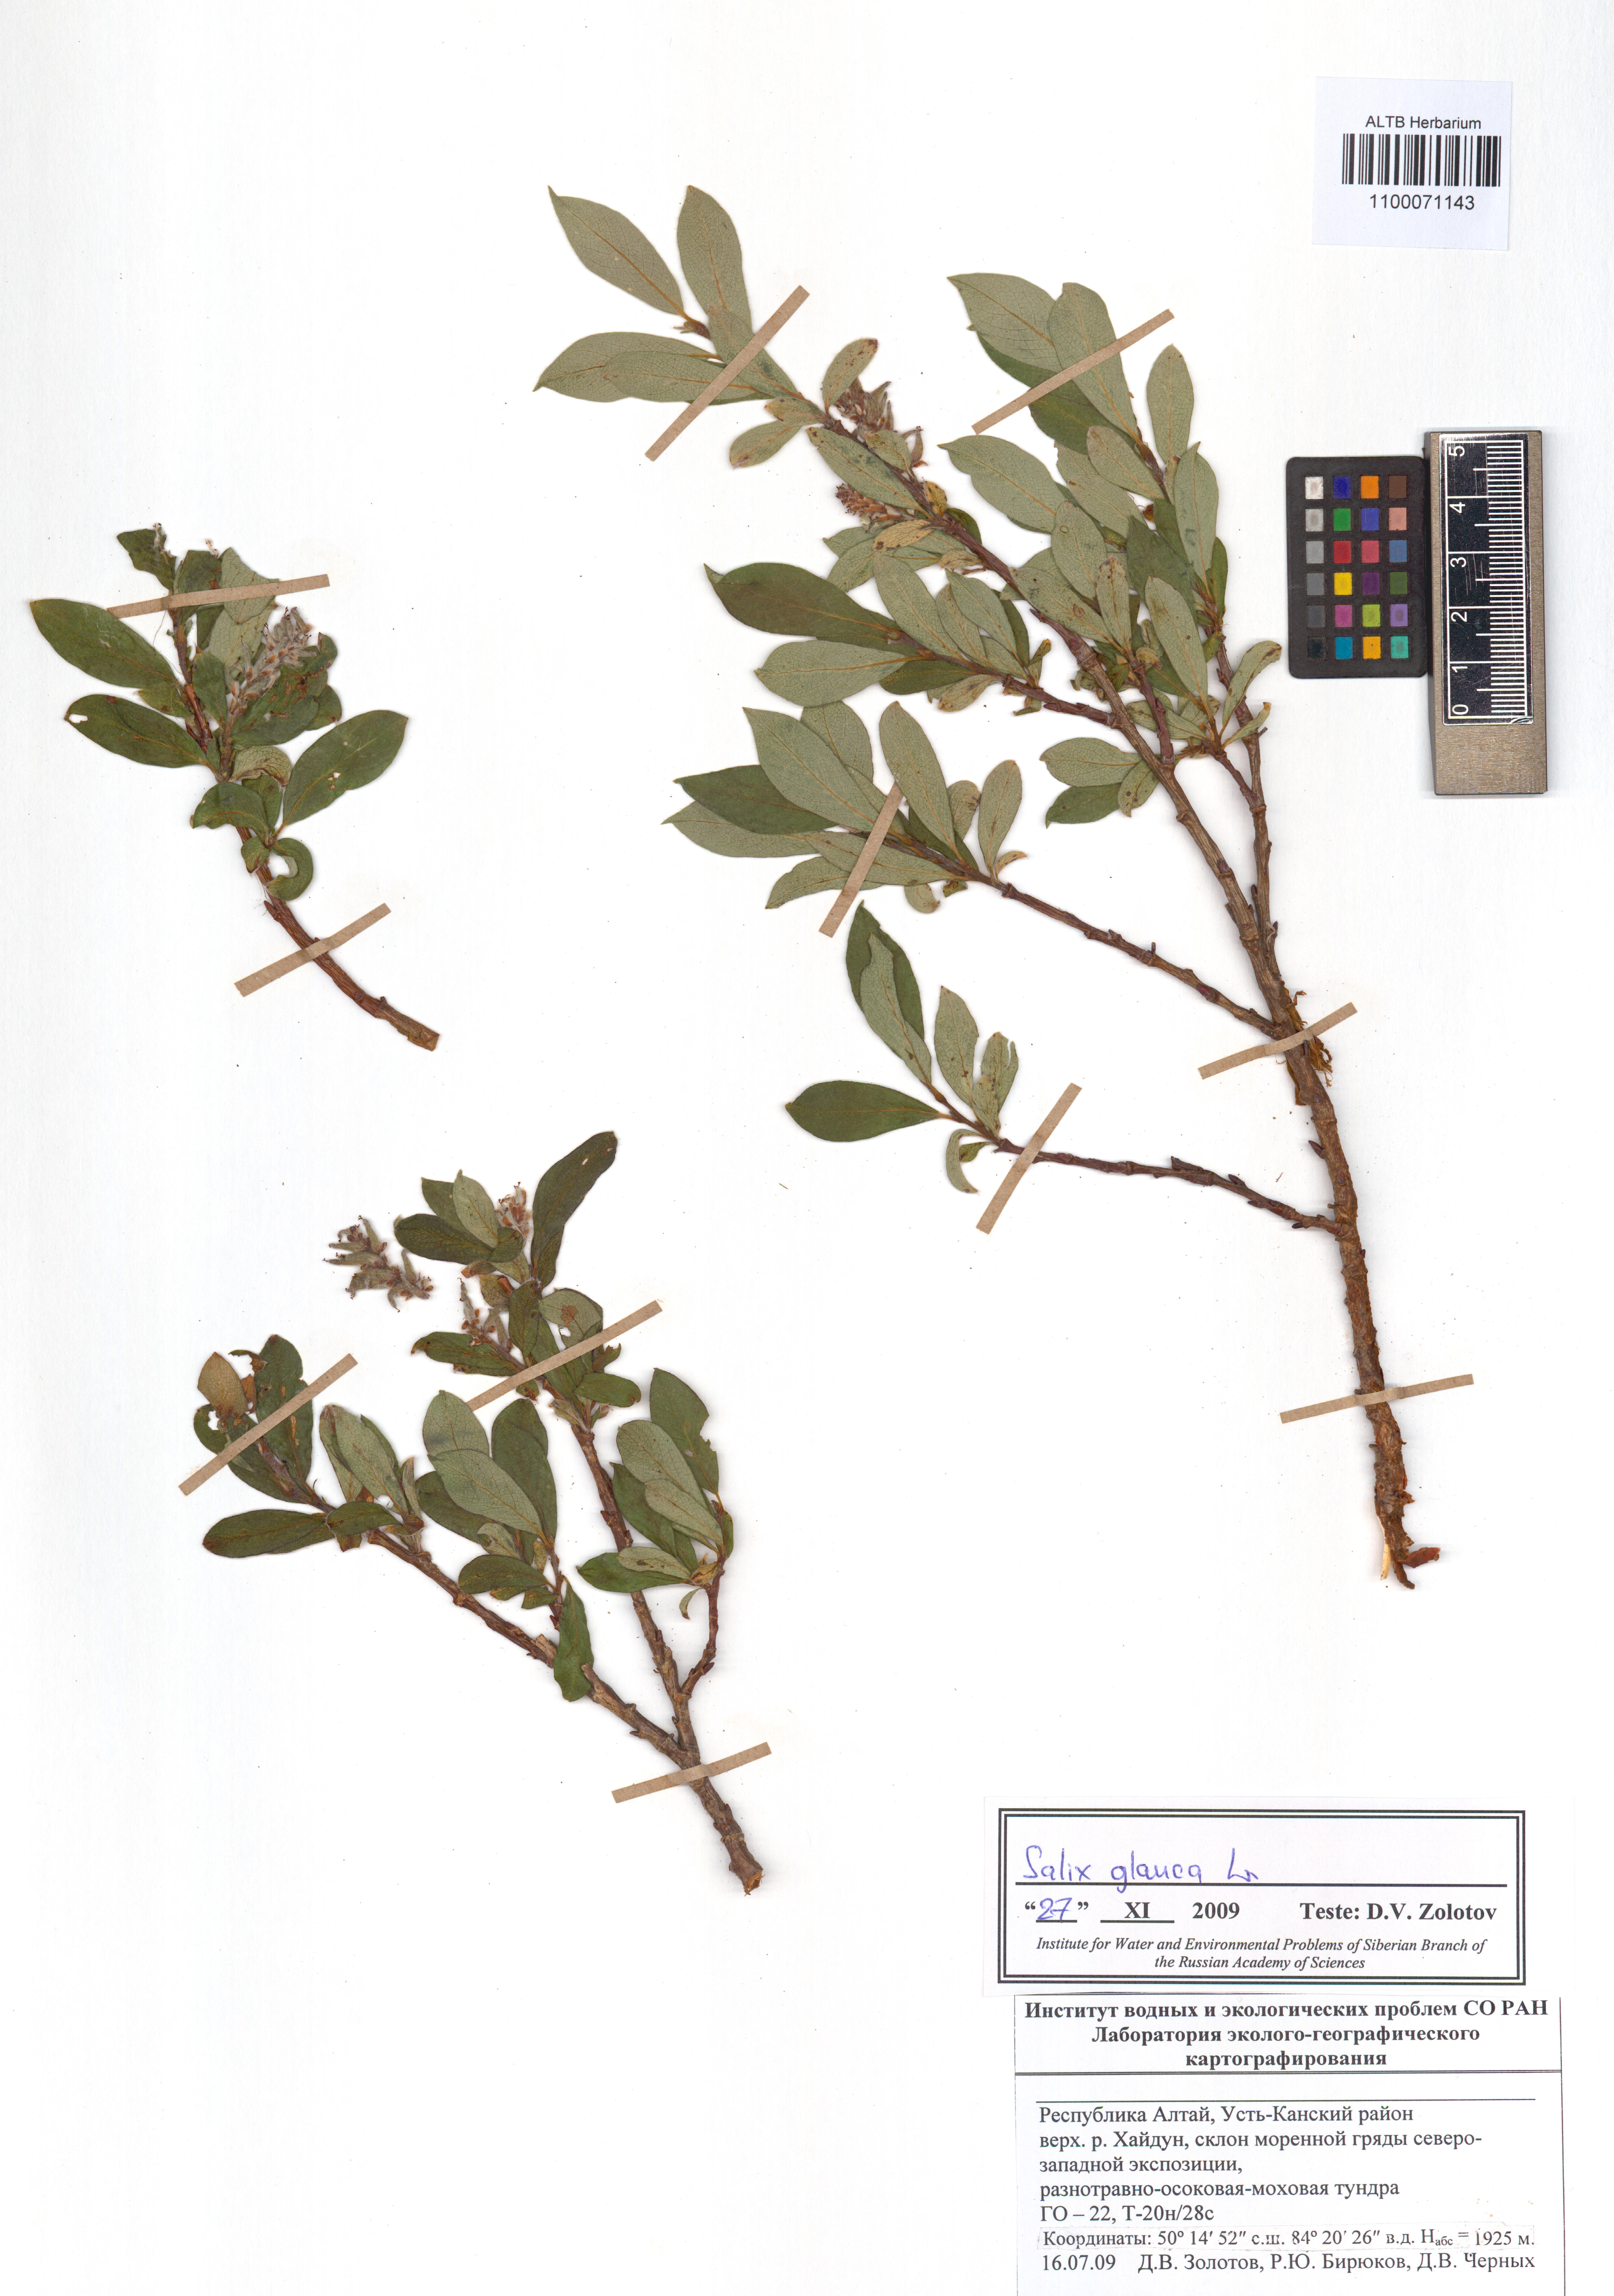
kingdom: Plantae
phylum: Tracheophyta
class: Magnoliopsida
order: Malpighiales
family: Salicaceae
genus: Salix
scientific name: Salix glauca
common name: Glaucous willow
